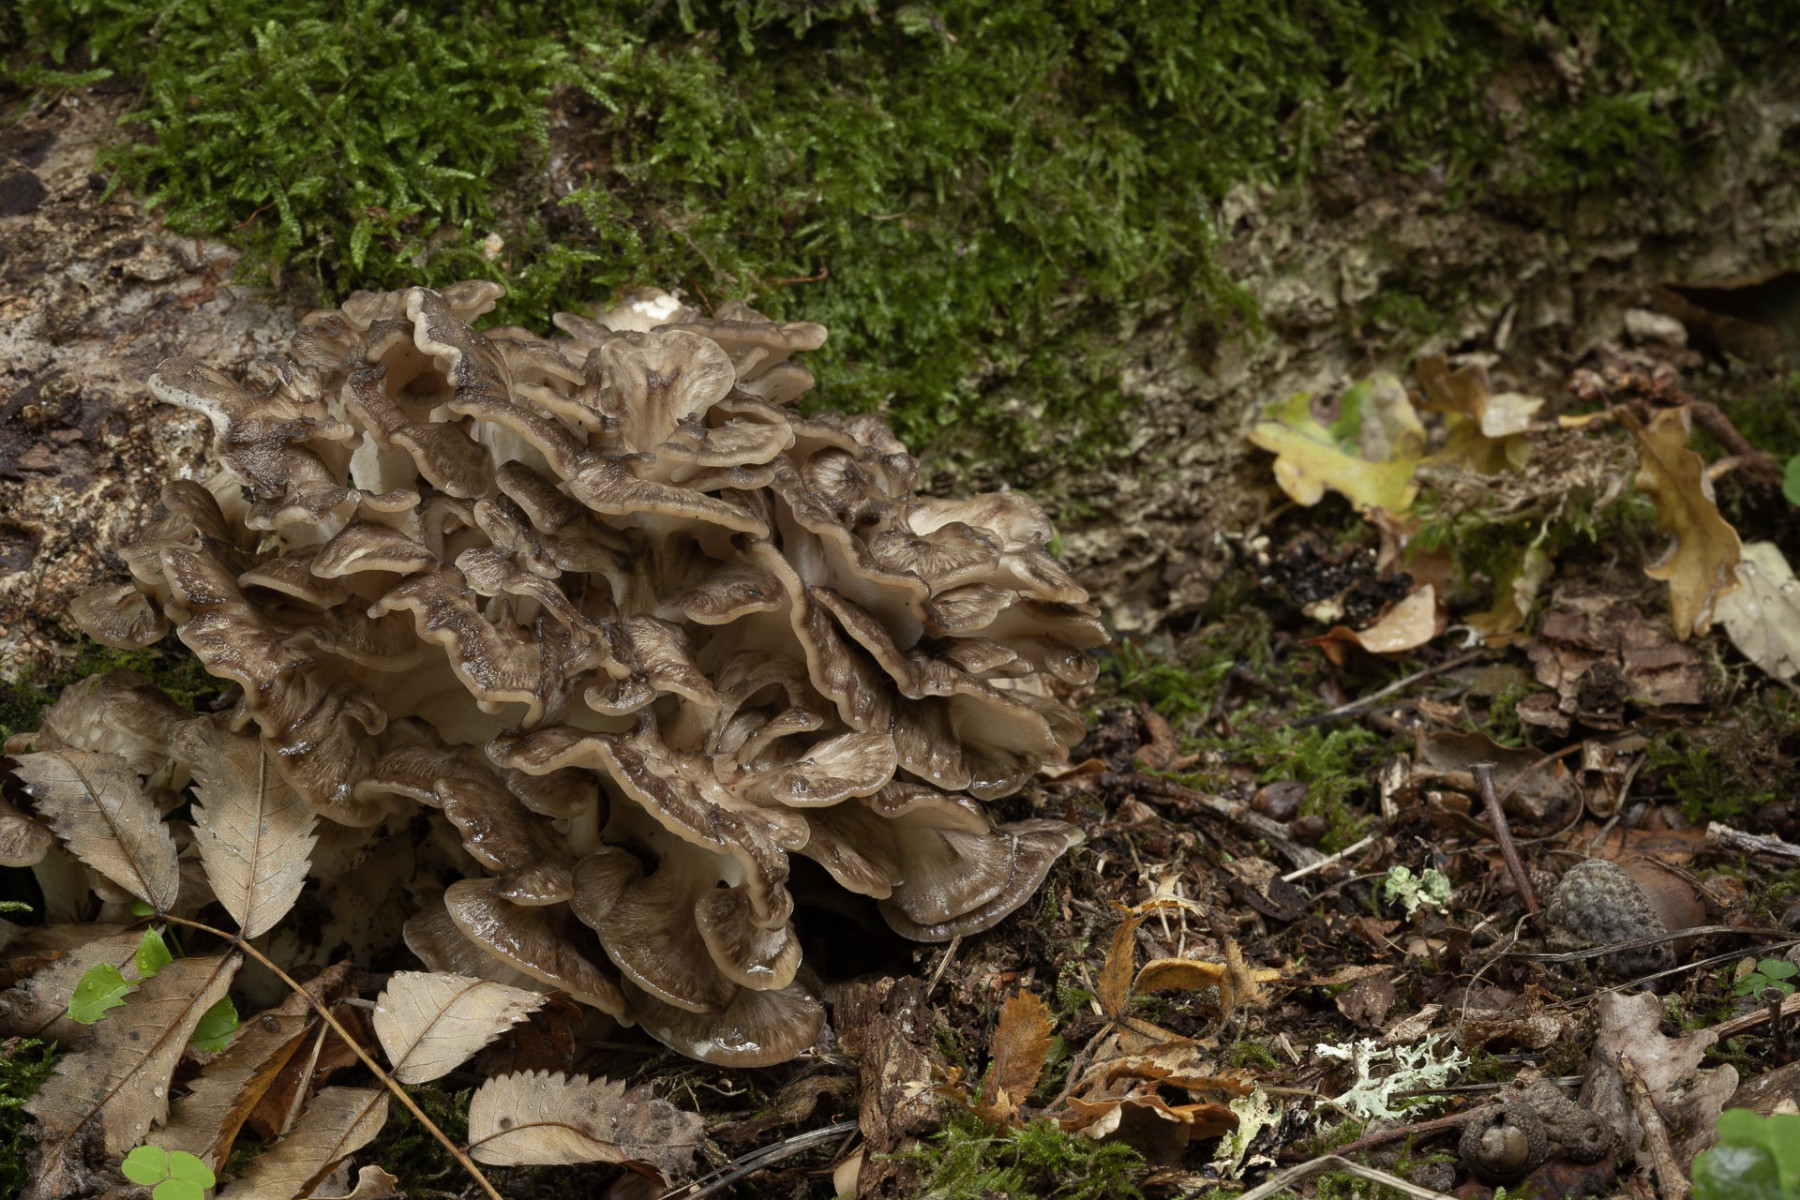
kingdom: Fungi
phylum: Basidiomycota
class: Agaricomycetes
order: Polyporales
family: Grifolaceae
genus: Grifola
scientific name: Grifola frondosa
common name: tueporesvamp
